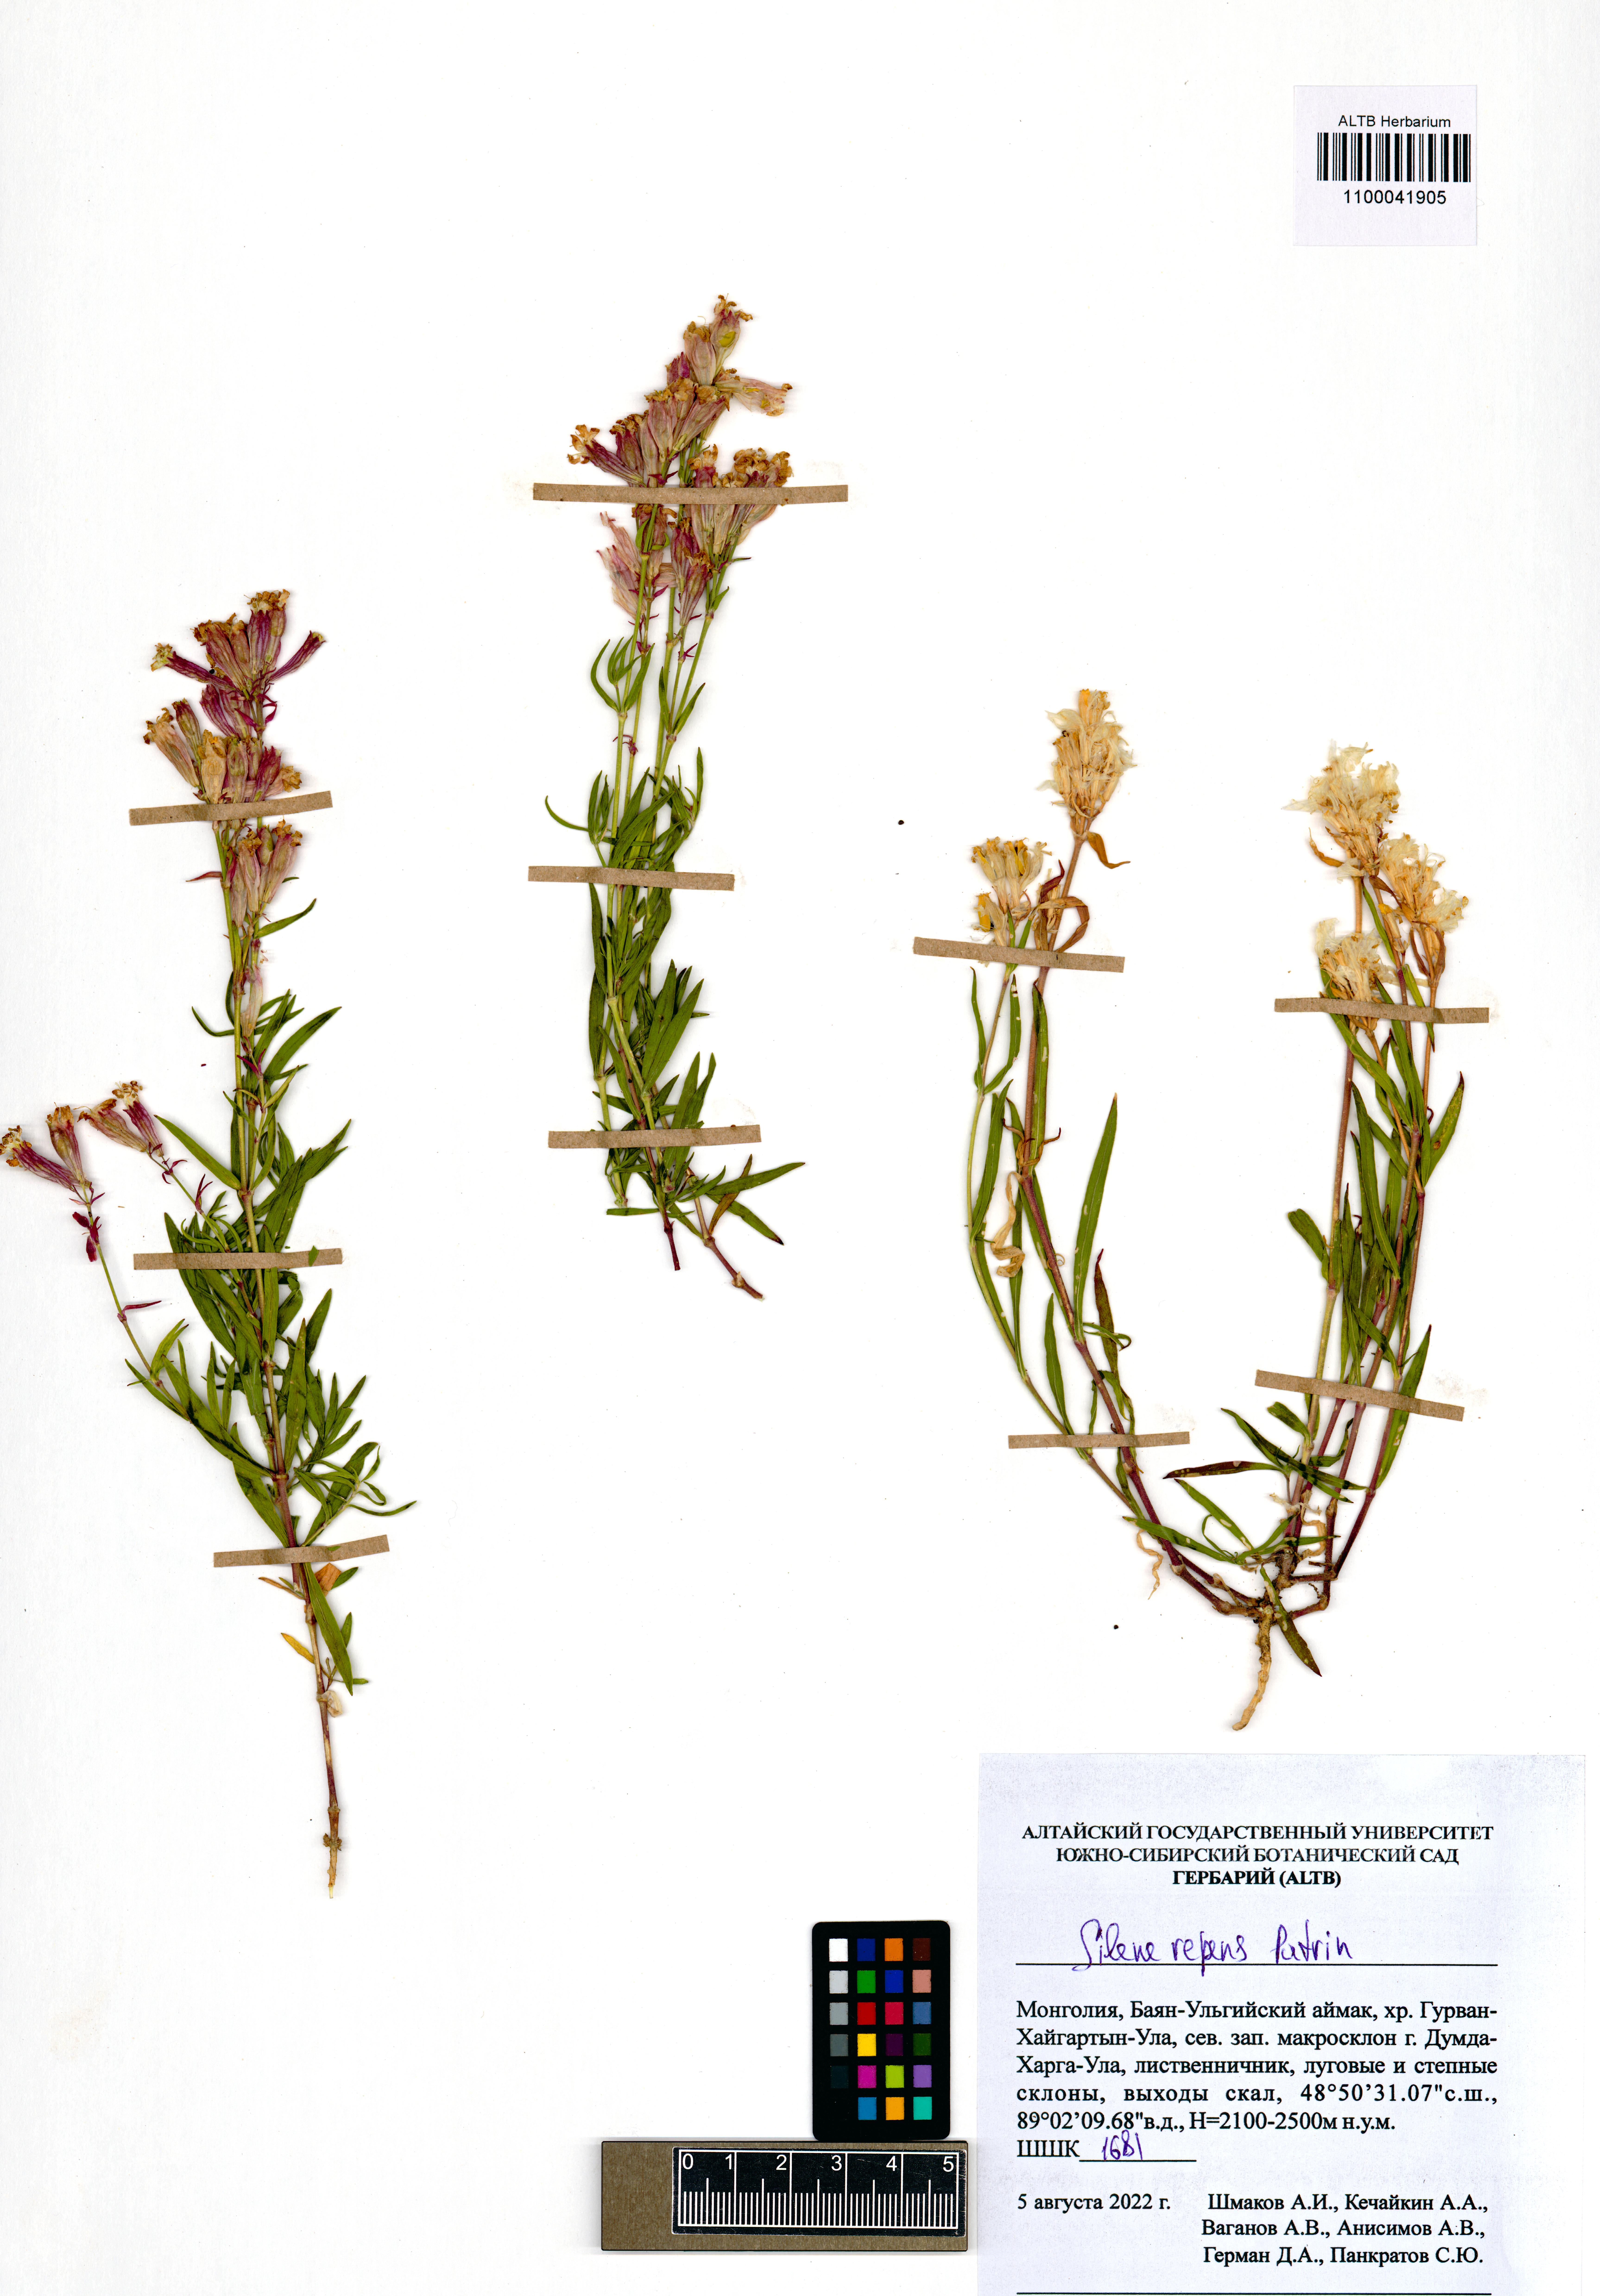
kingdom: Plantae
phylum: Tracheophyta
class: Magnoliopsida
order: Caryophyllales
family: Caryophyllaceae
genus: Silene
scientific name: Silene repens
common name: Pink campion
